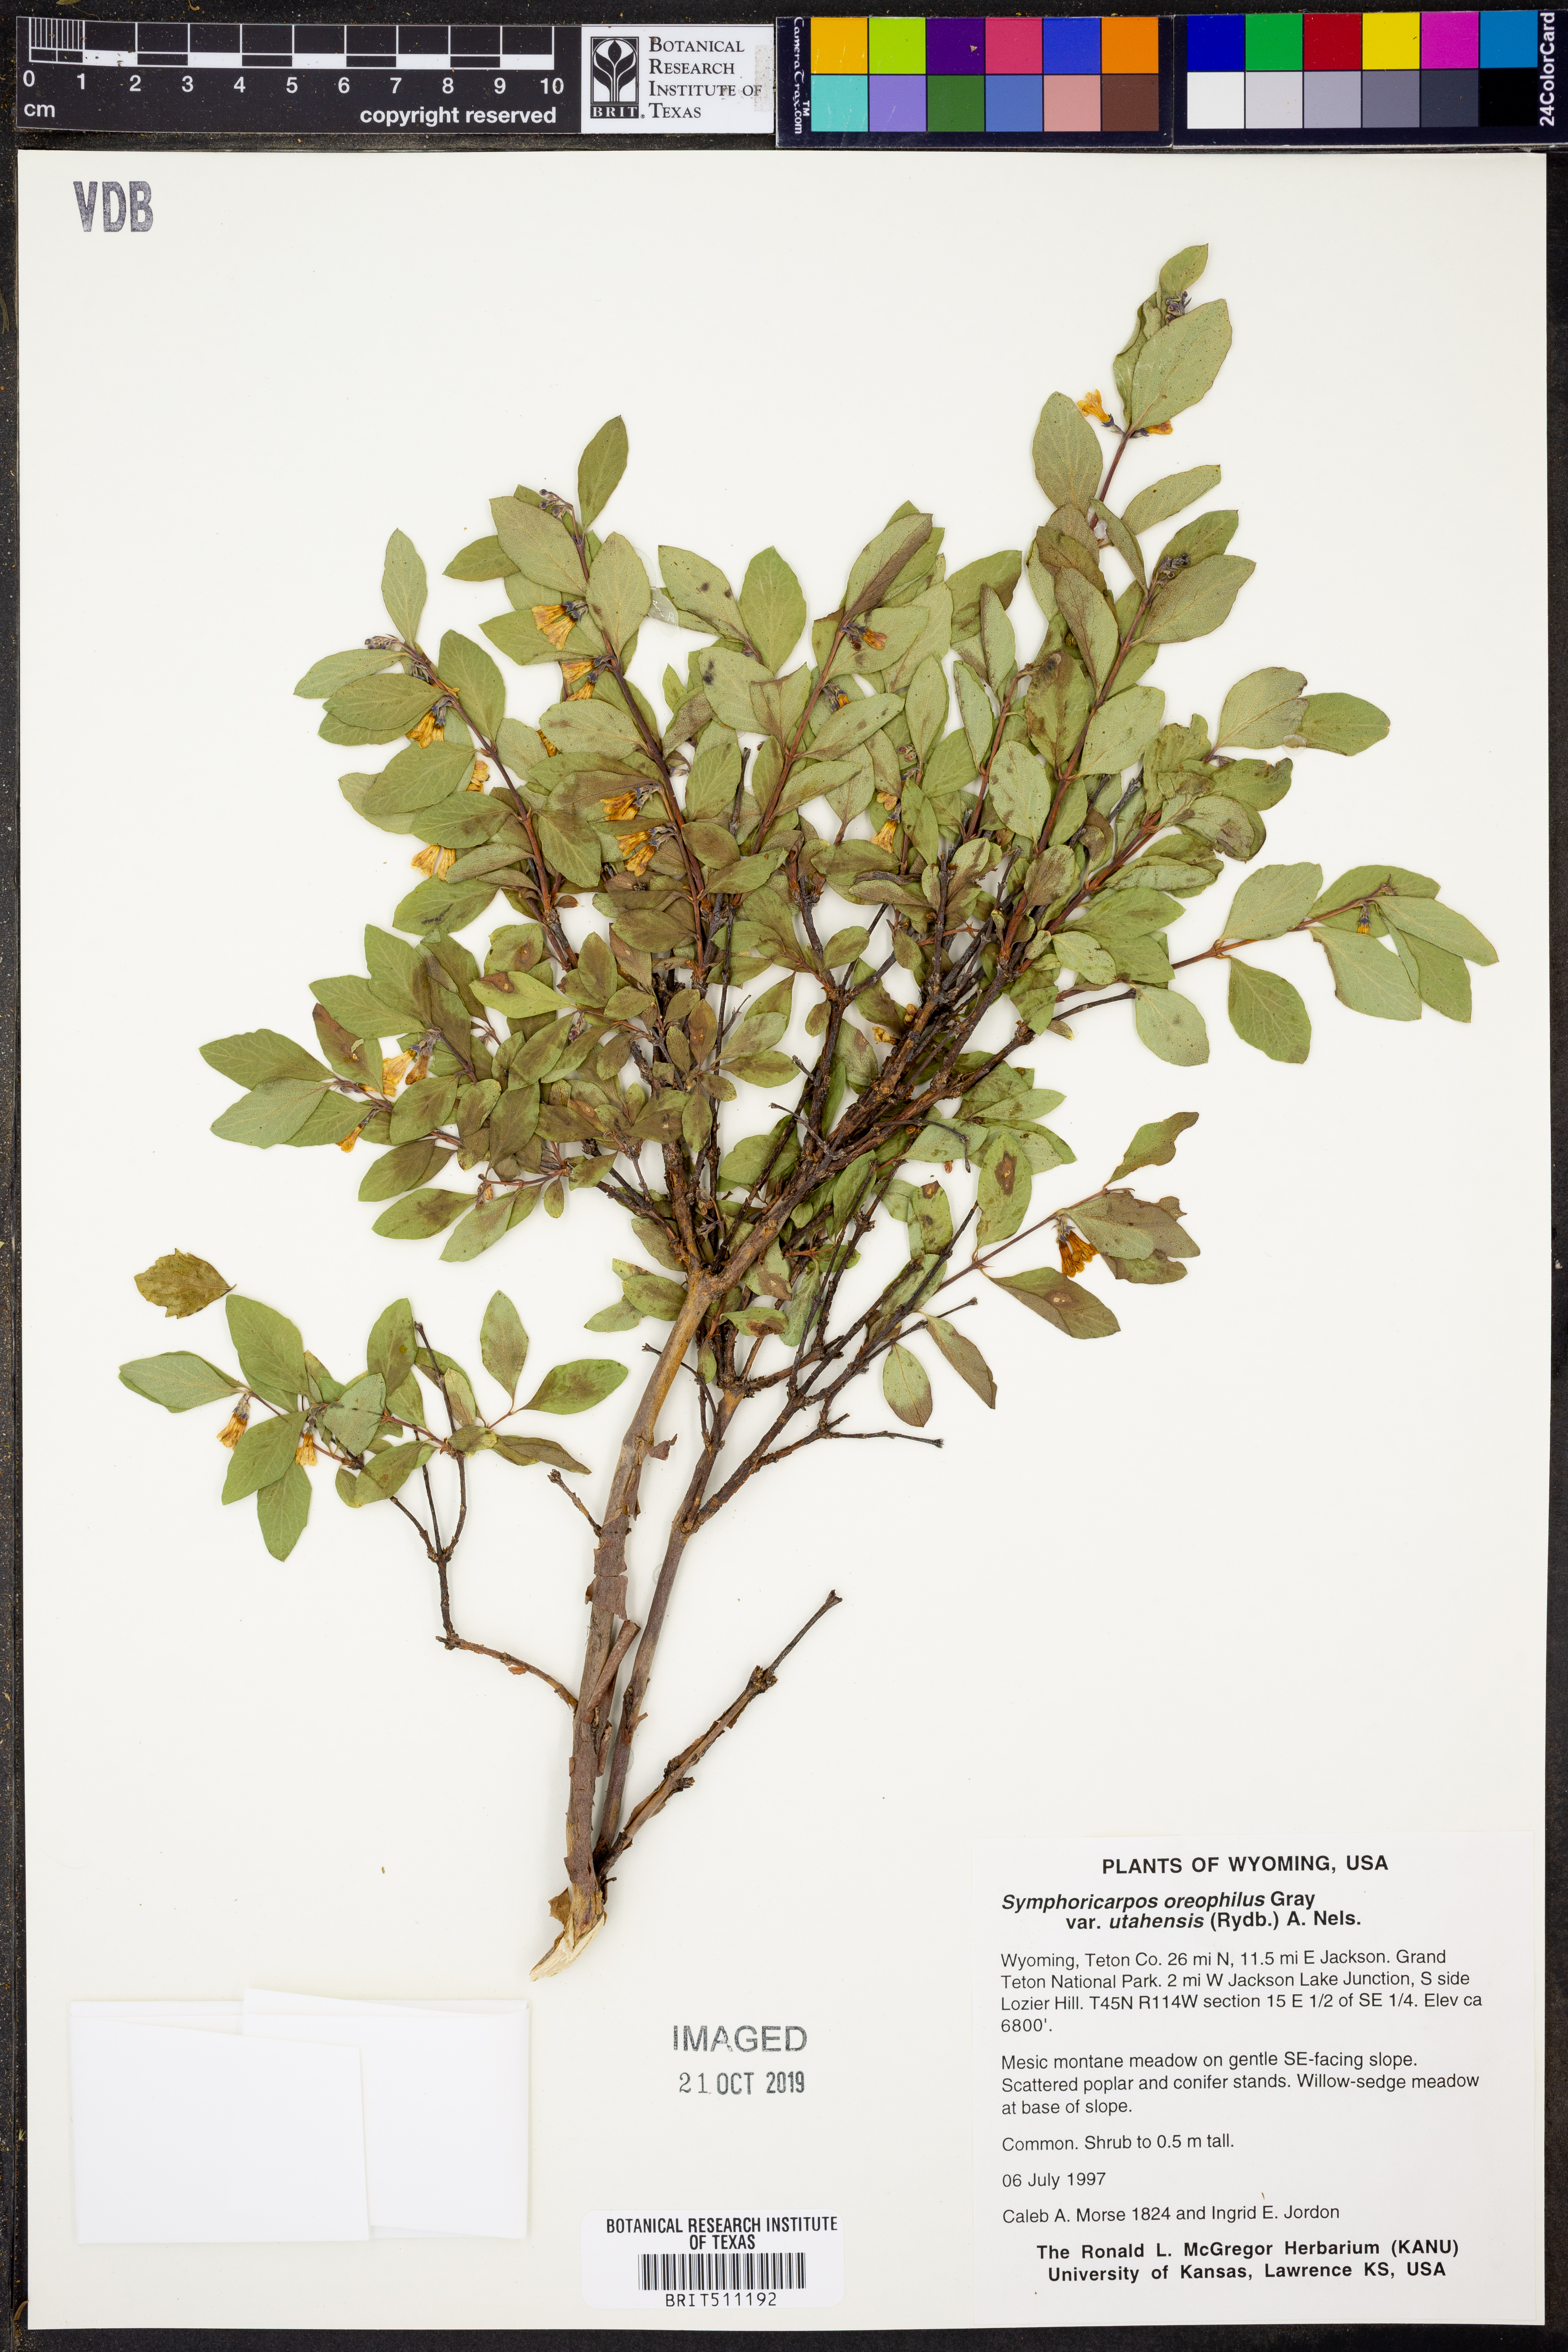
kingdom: Plantae
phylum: Tracheophyta
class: Magnoliopsida
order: Dipsacales
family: Caprifoliaceae
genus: Symphoricarpos
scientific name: Symphoricarpos oreophilus
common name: Mountain snowberry
